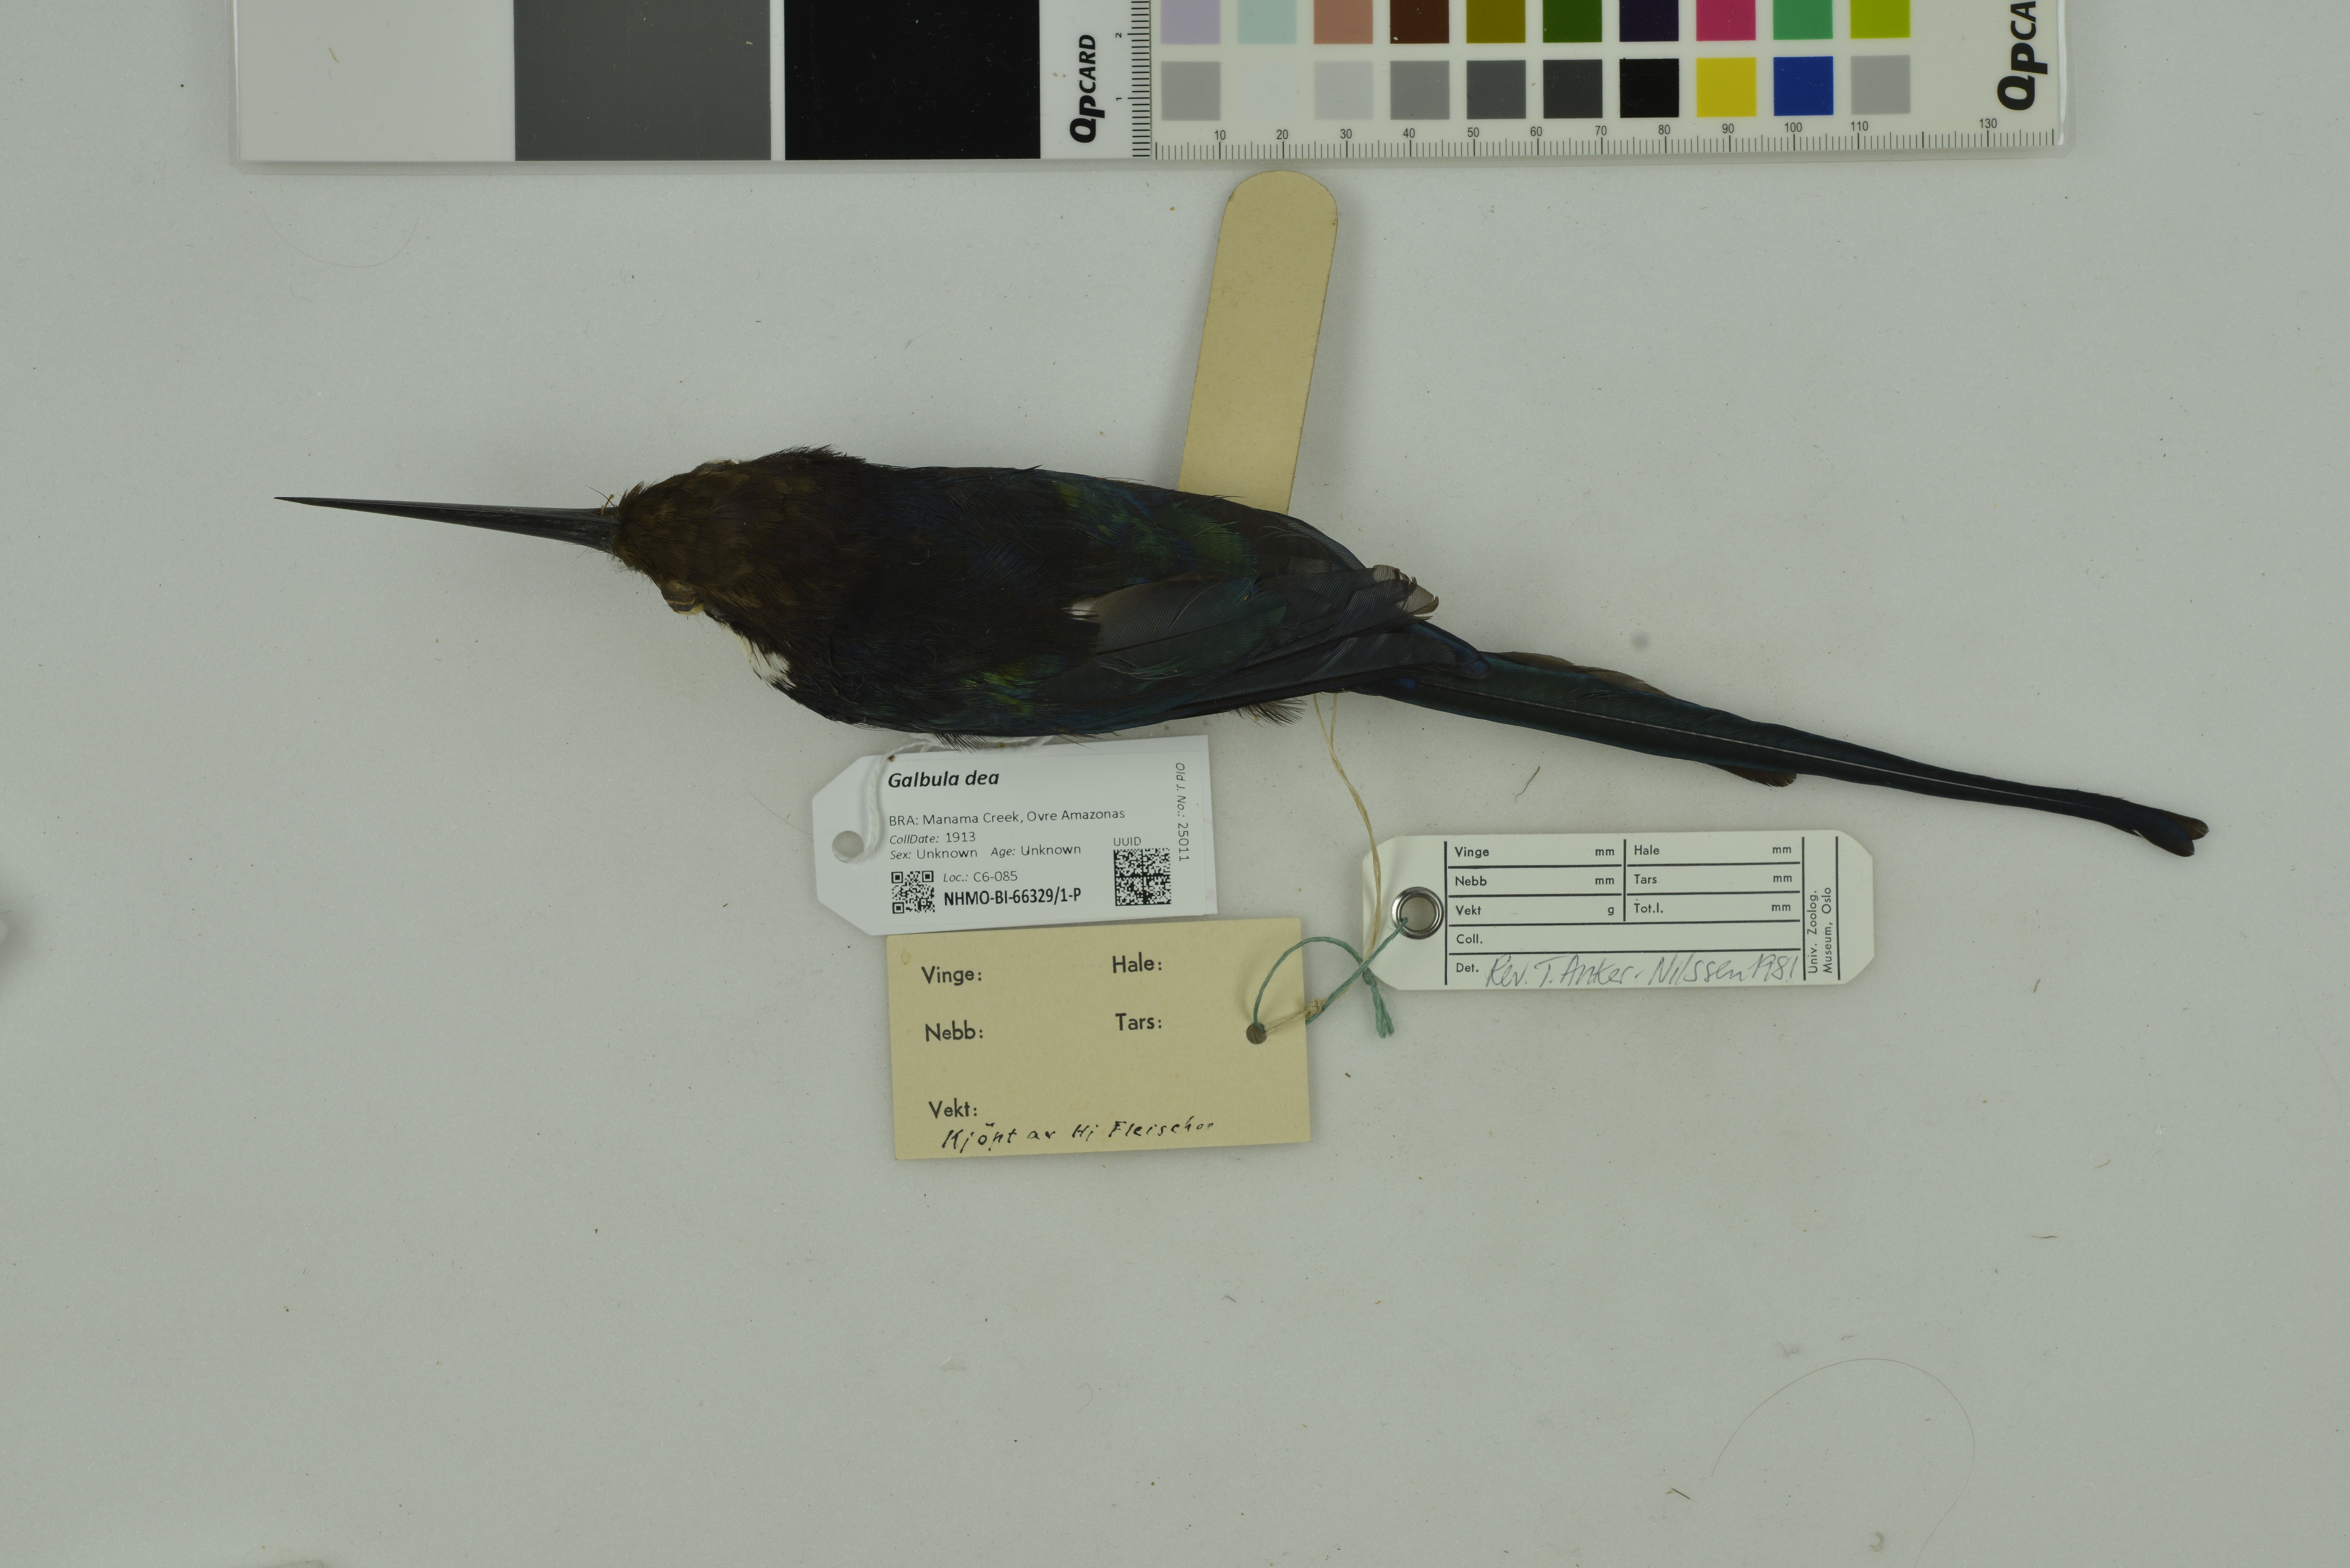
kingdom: Animalia
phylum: Chordata
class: Aves
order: Piciformes
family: Galbulidae
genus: Galbula
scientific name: Galbula dea
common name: Paradise jacamar
